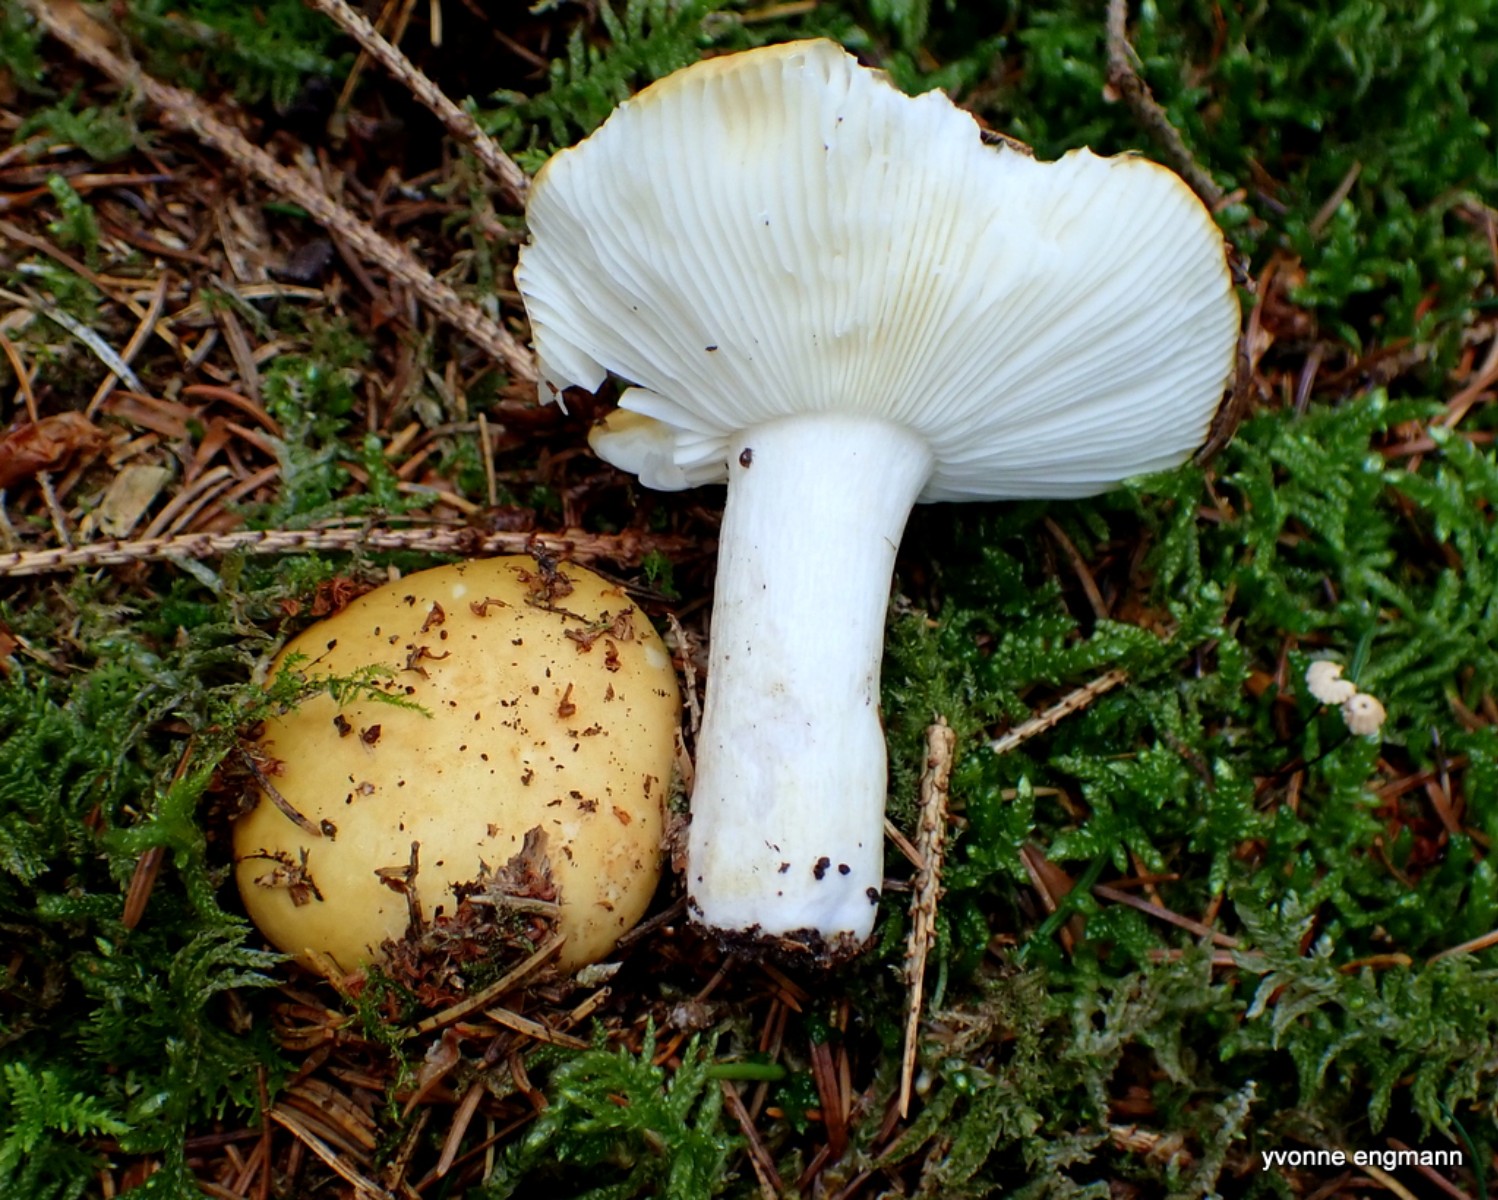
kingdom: Fungi
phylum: Basidiomycota
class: Agaricomycetes
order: Russulales
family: Russulaceae
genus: Russula
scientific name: Russula ochroleuca
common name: okkergul skørhat
